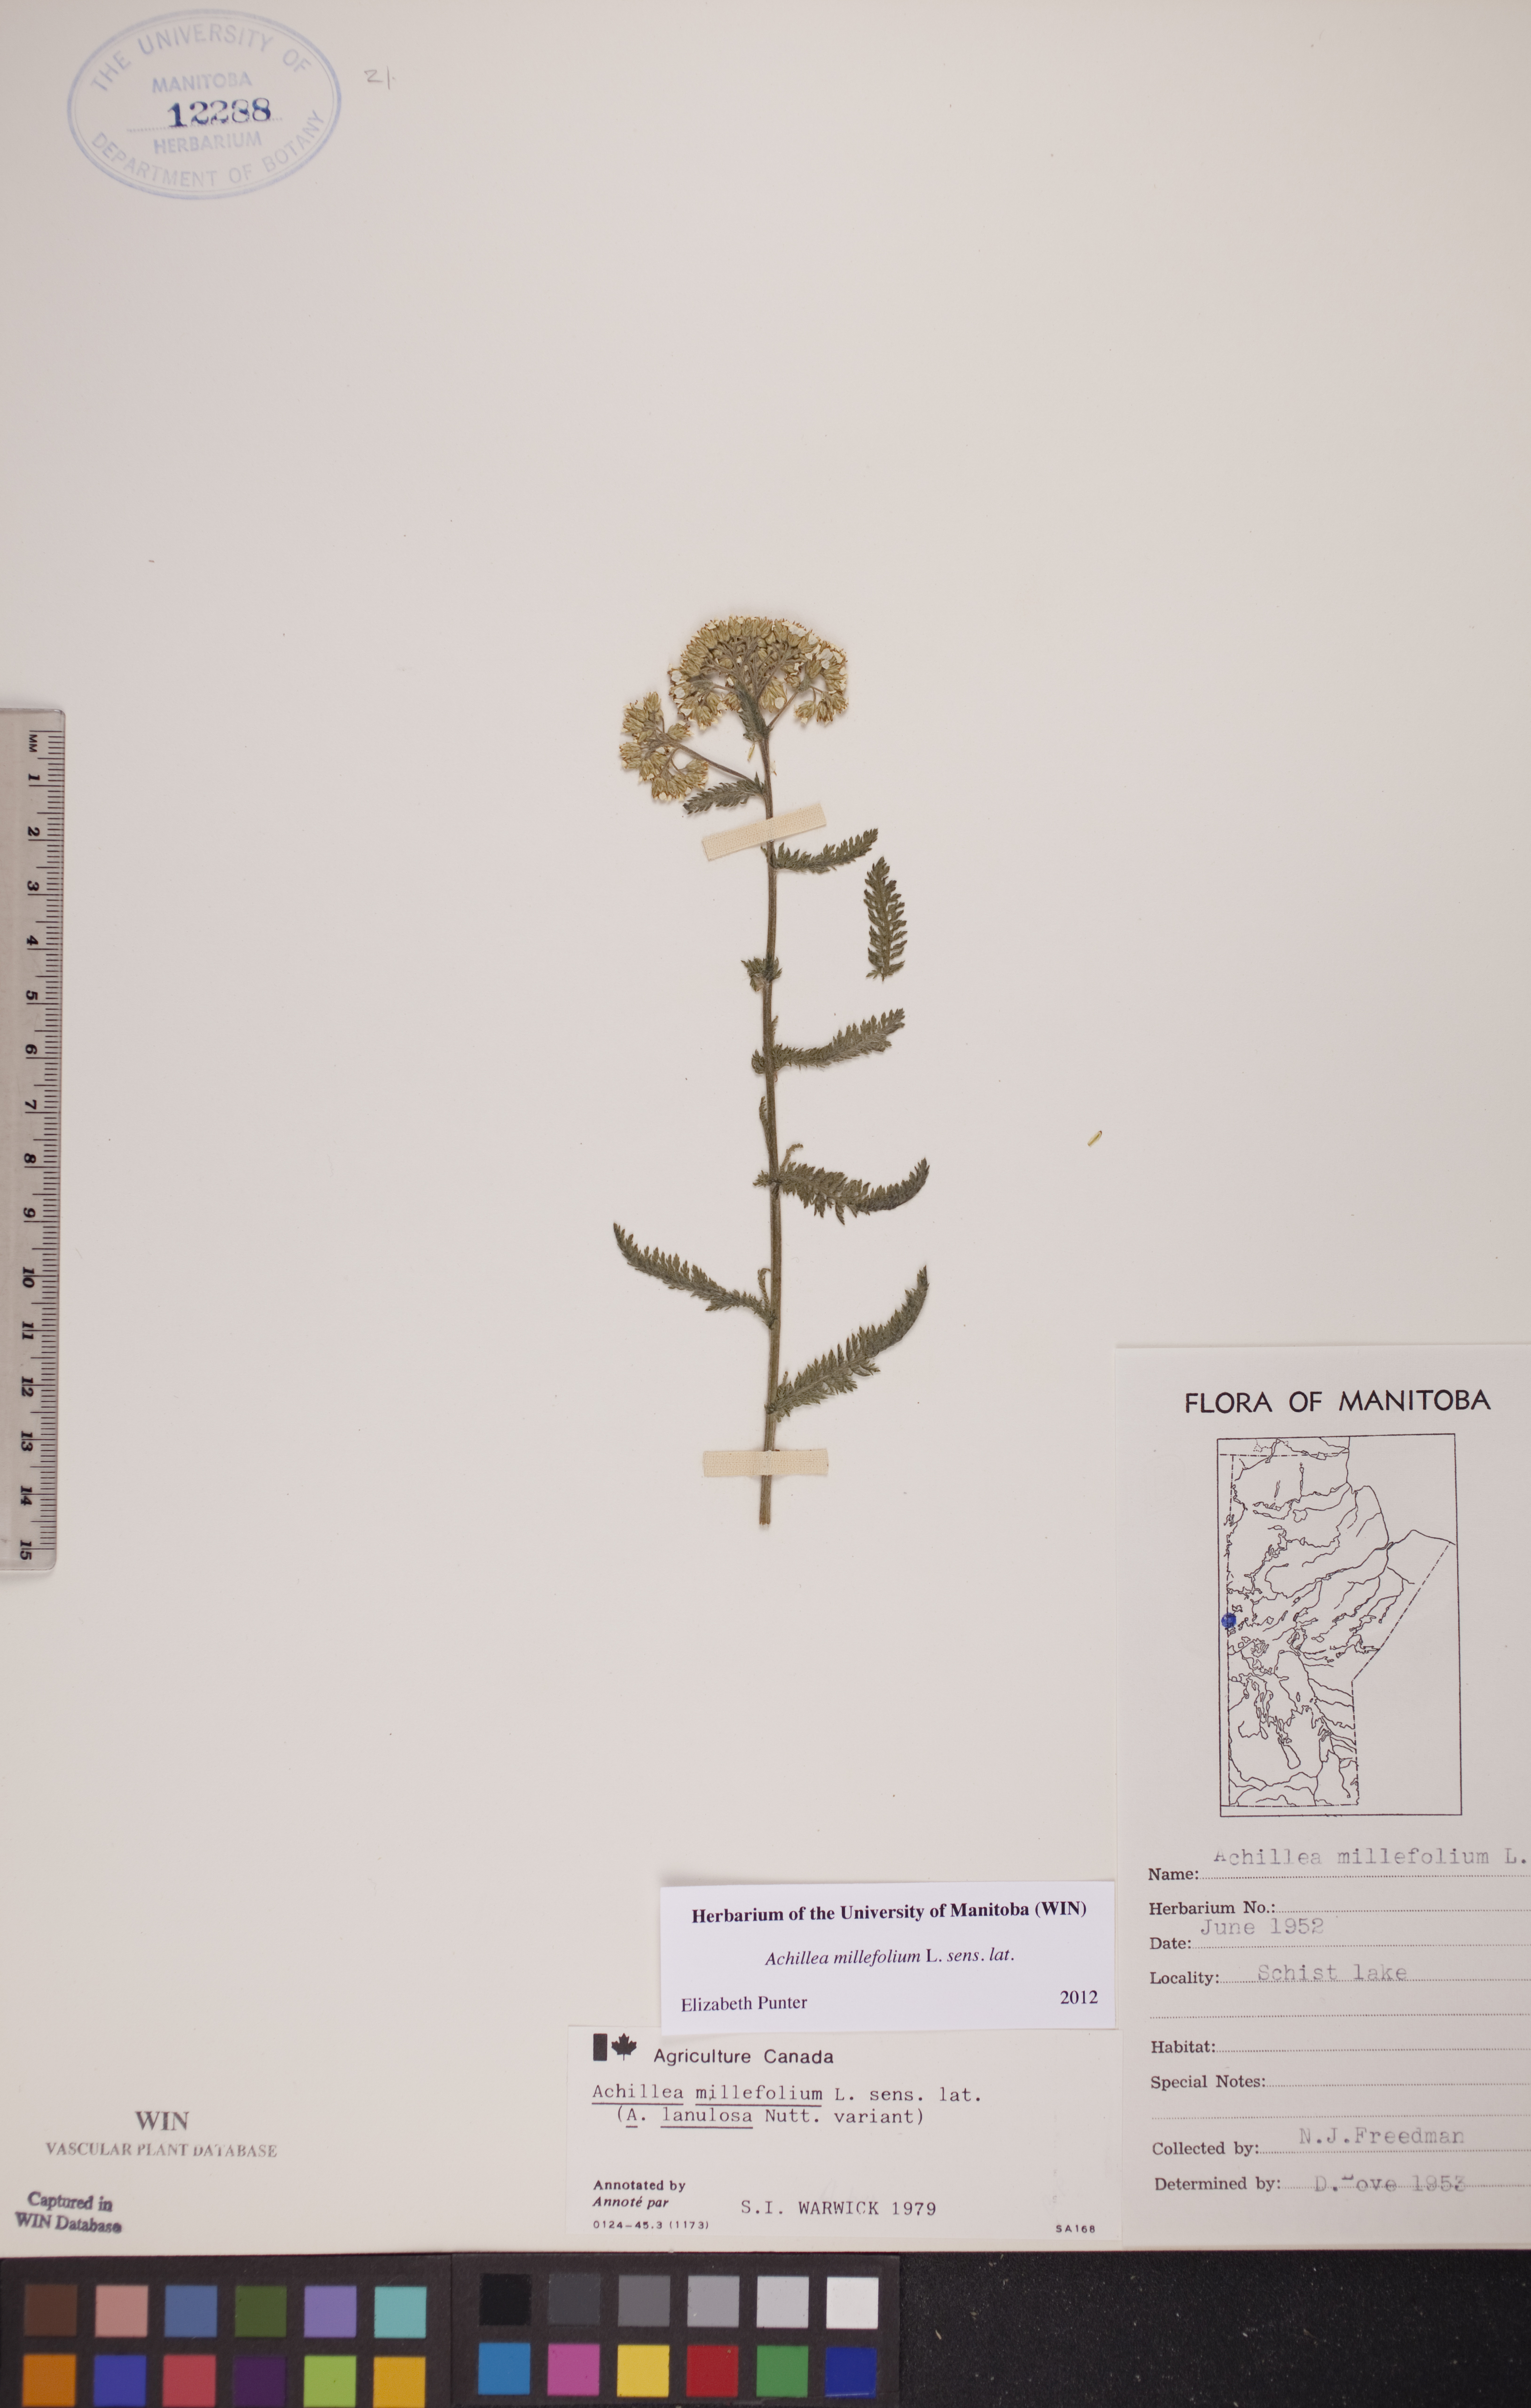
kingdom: Plantae
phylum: Tracheophyta
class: Magnoliopsida
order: Asterales
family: Asteraceae
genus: Achillea
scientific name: Achillea millefolium
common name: Yarrow
